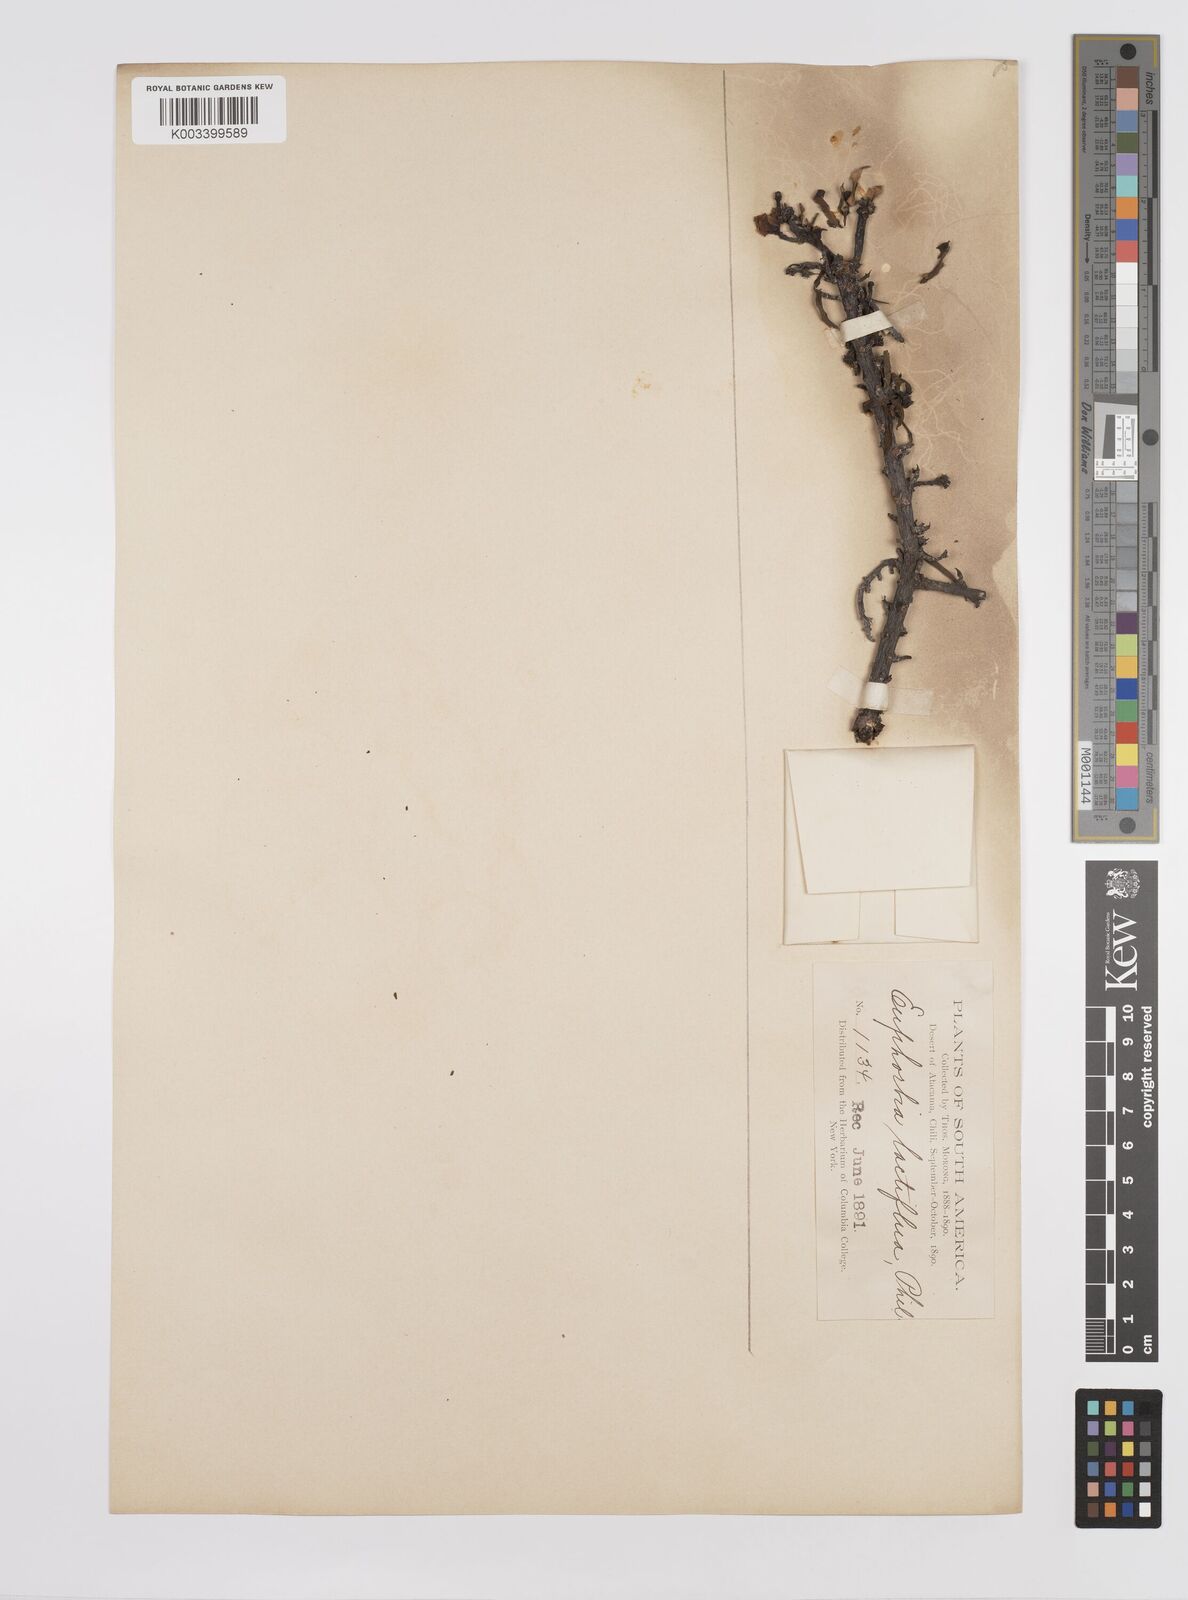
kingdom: Plantae
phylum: Tracheophyta
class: Magnoliopsida
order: Malpighiales
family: Euphorbiaceae
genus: Euphorbia
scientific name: Euphorbia lactiflua
